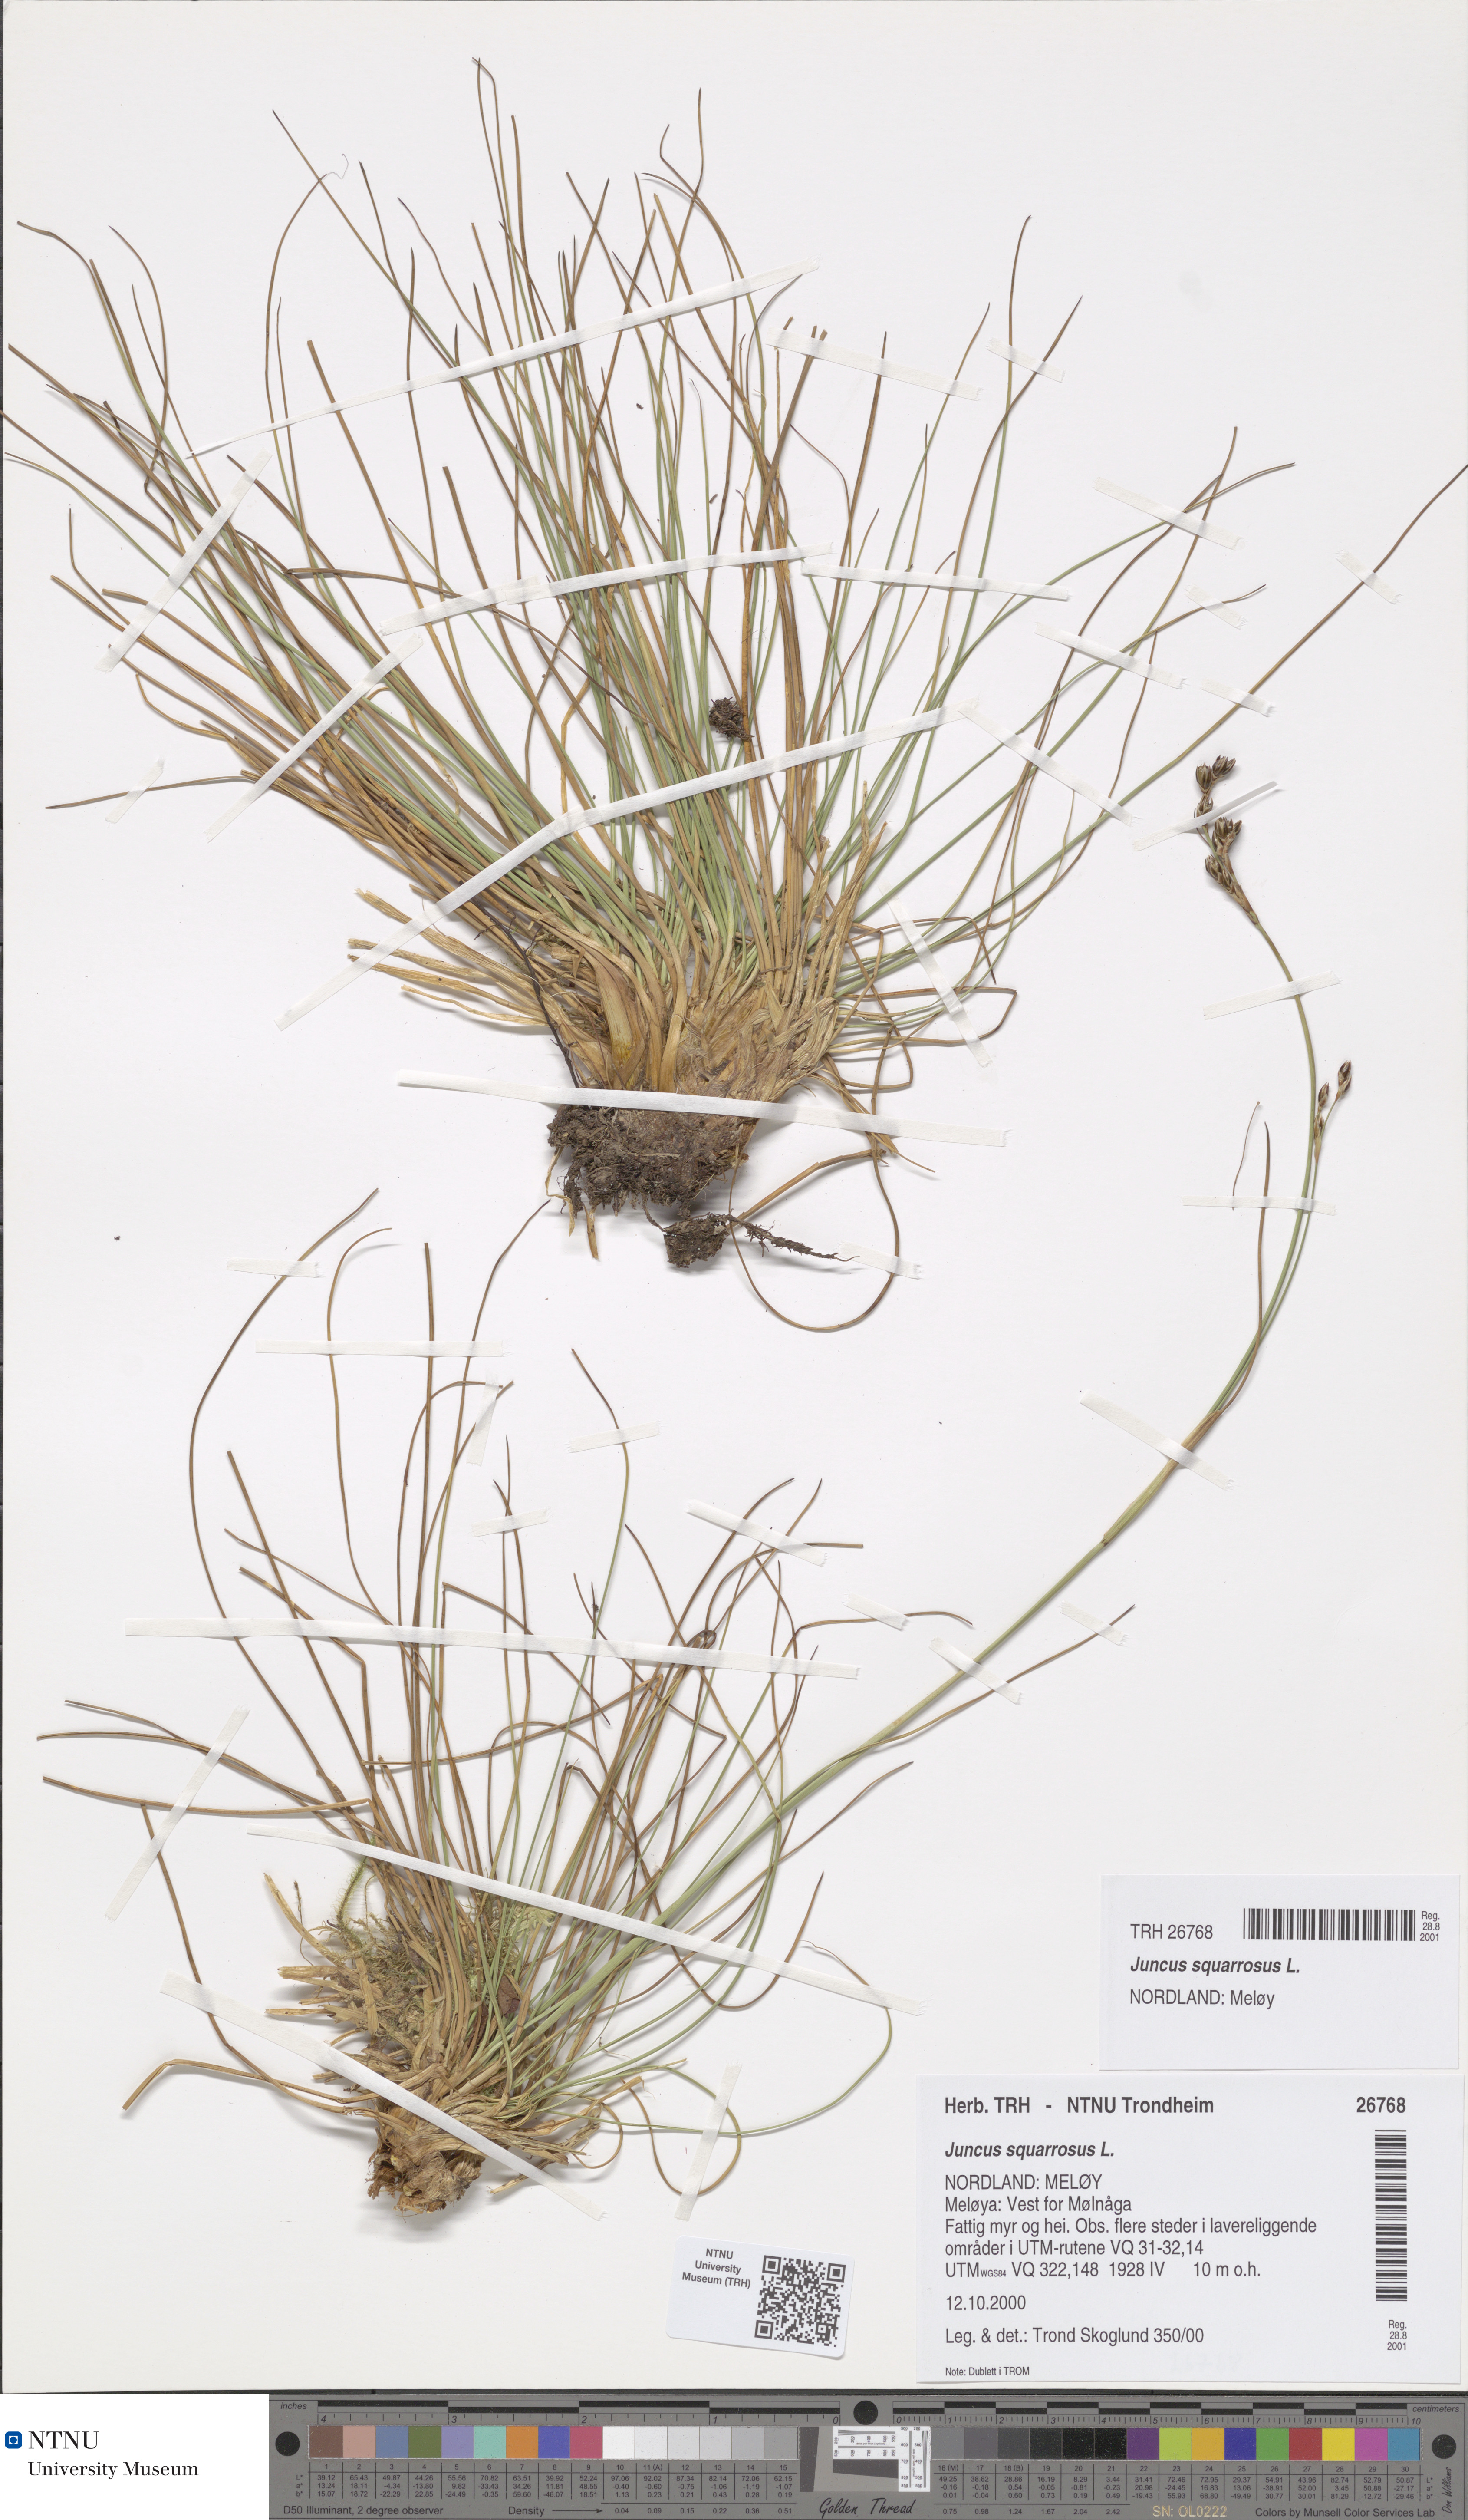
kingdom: Plantae
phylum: Tracheophyta
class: Liliopsida
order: Poales
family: Juncaceae
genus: Juncus
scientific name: Juncus squarrosus
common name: Heath rush
